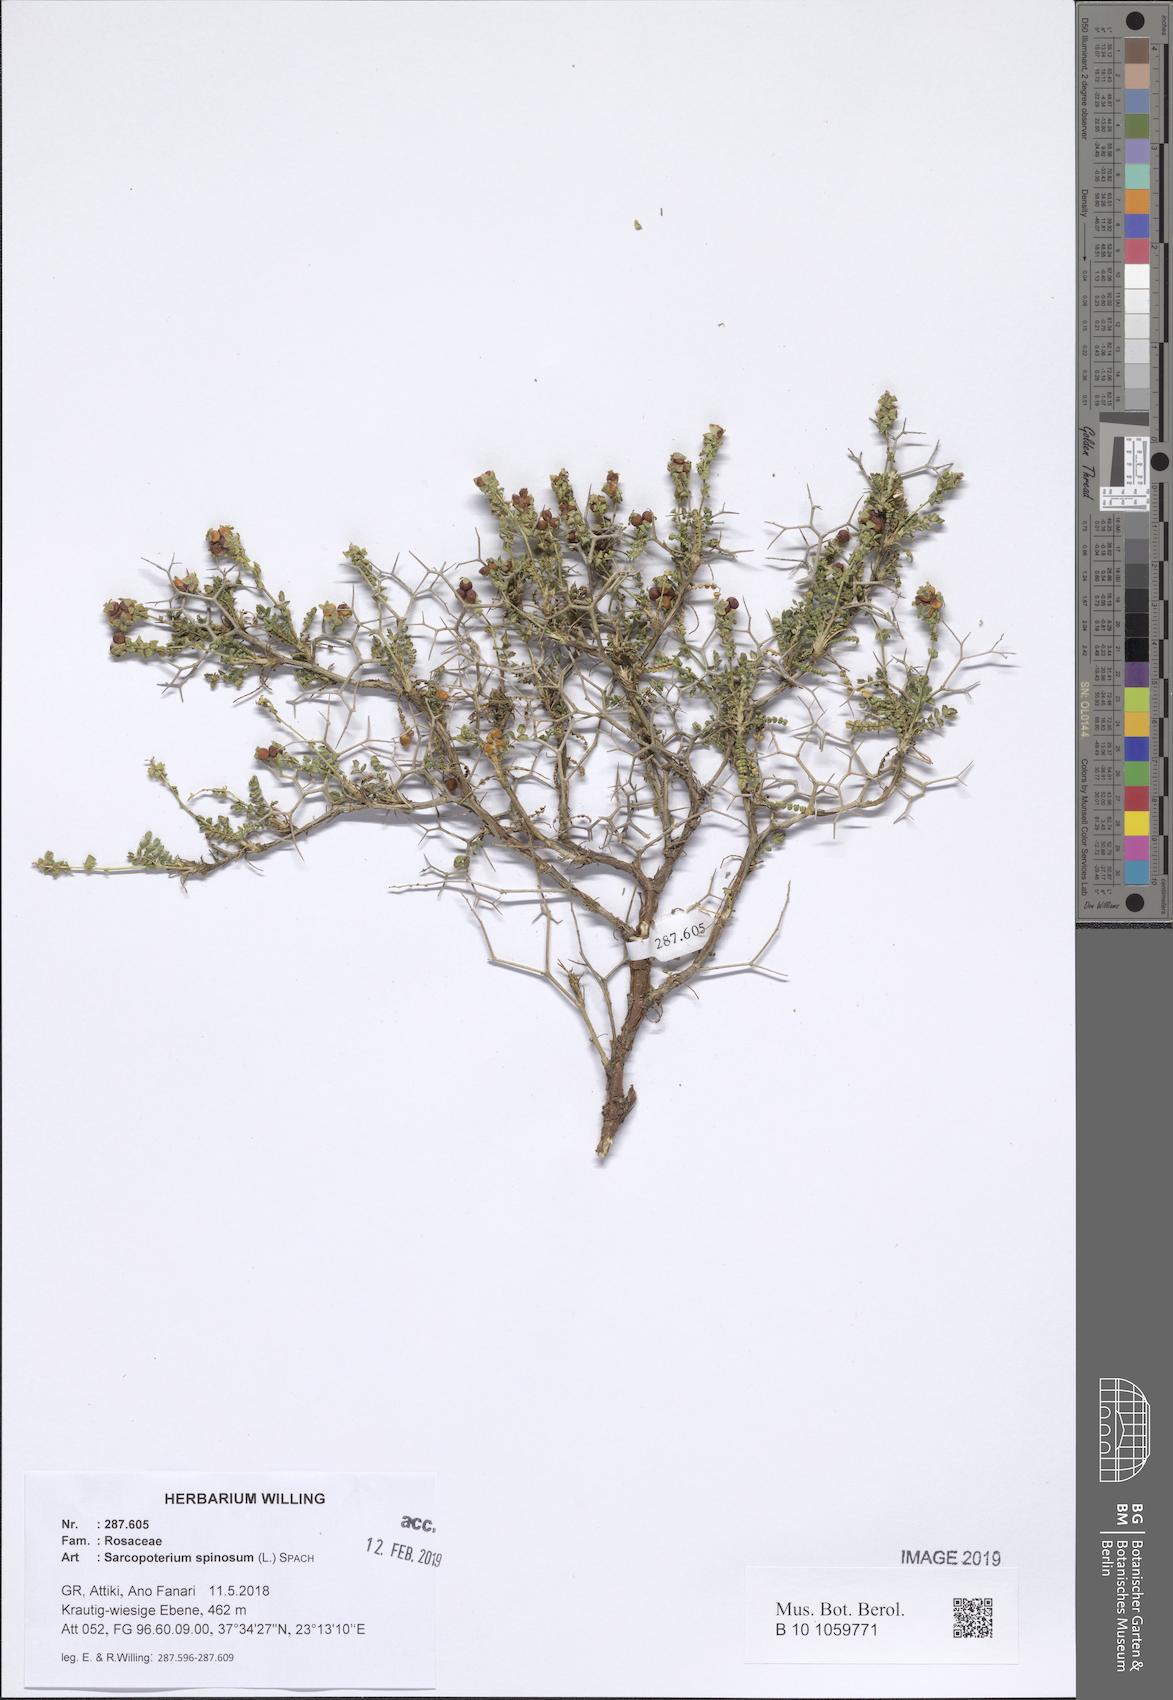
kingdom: Plantae
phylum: Tracheophyta
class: Magnoliopsida
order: Rosales
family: Rosaceae
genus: Sarcopoterium
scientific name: Sarcopoterium spinosum
